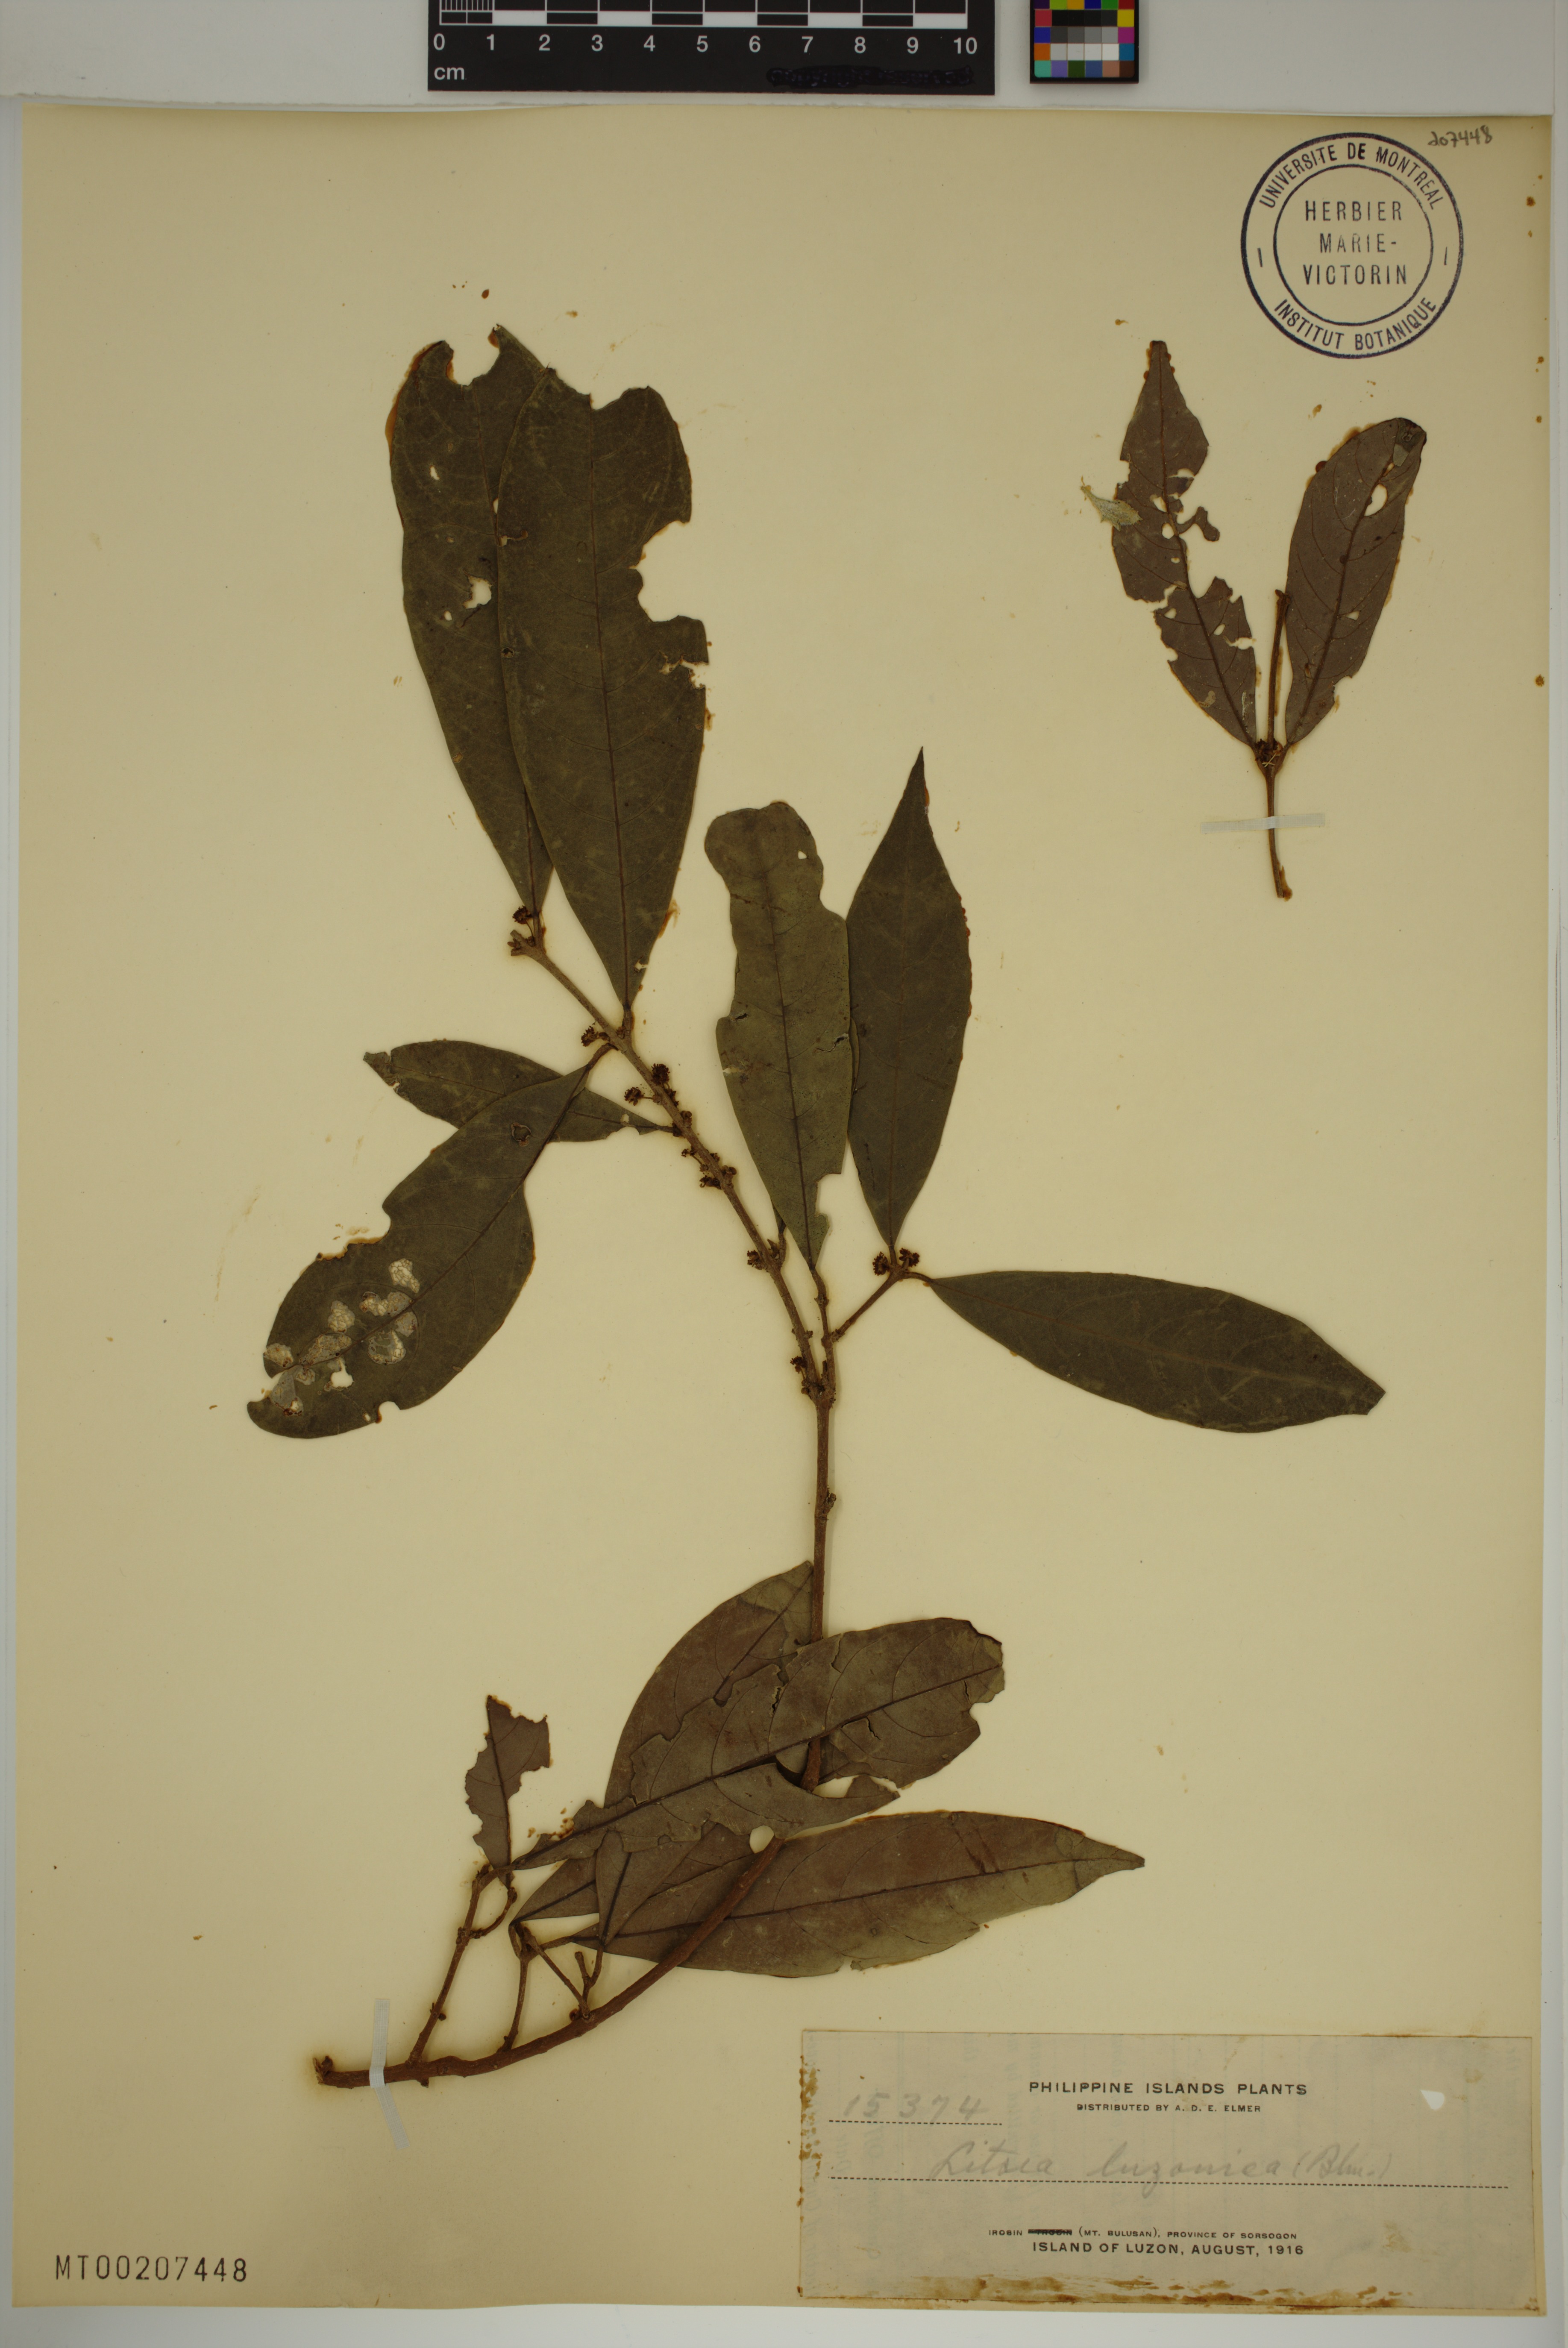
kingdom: Plantae
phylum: Tracheophyta
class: Magnoliopsida
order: Laurales
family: Lauraceae
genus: Litsea
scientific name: Litsea luzonica
